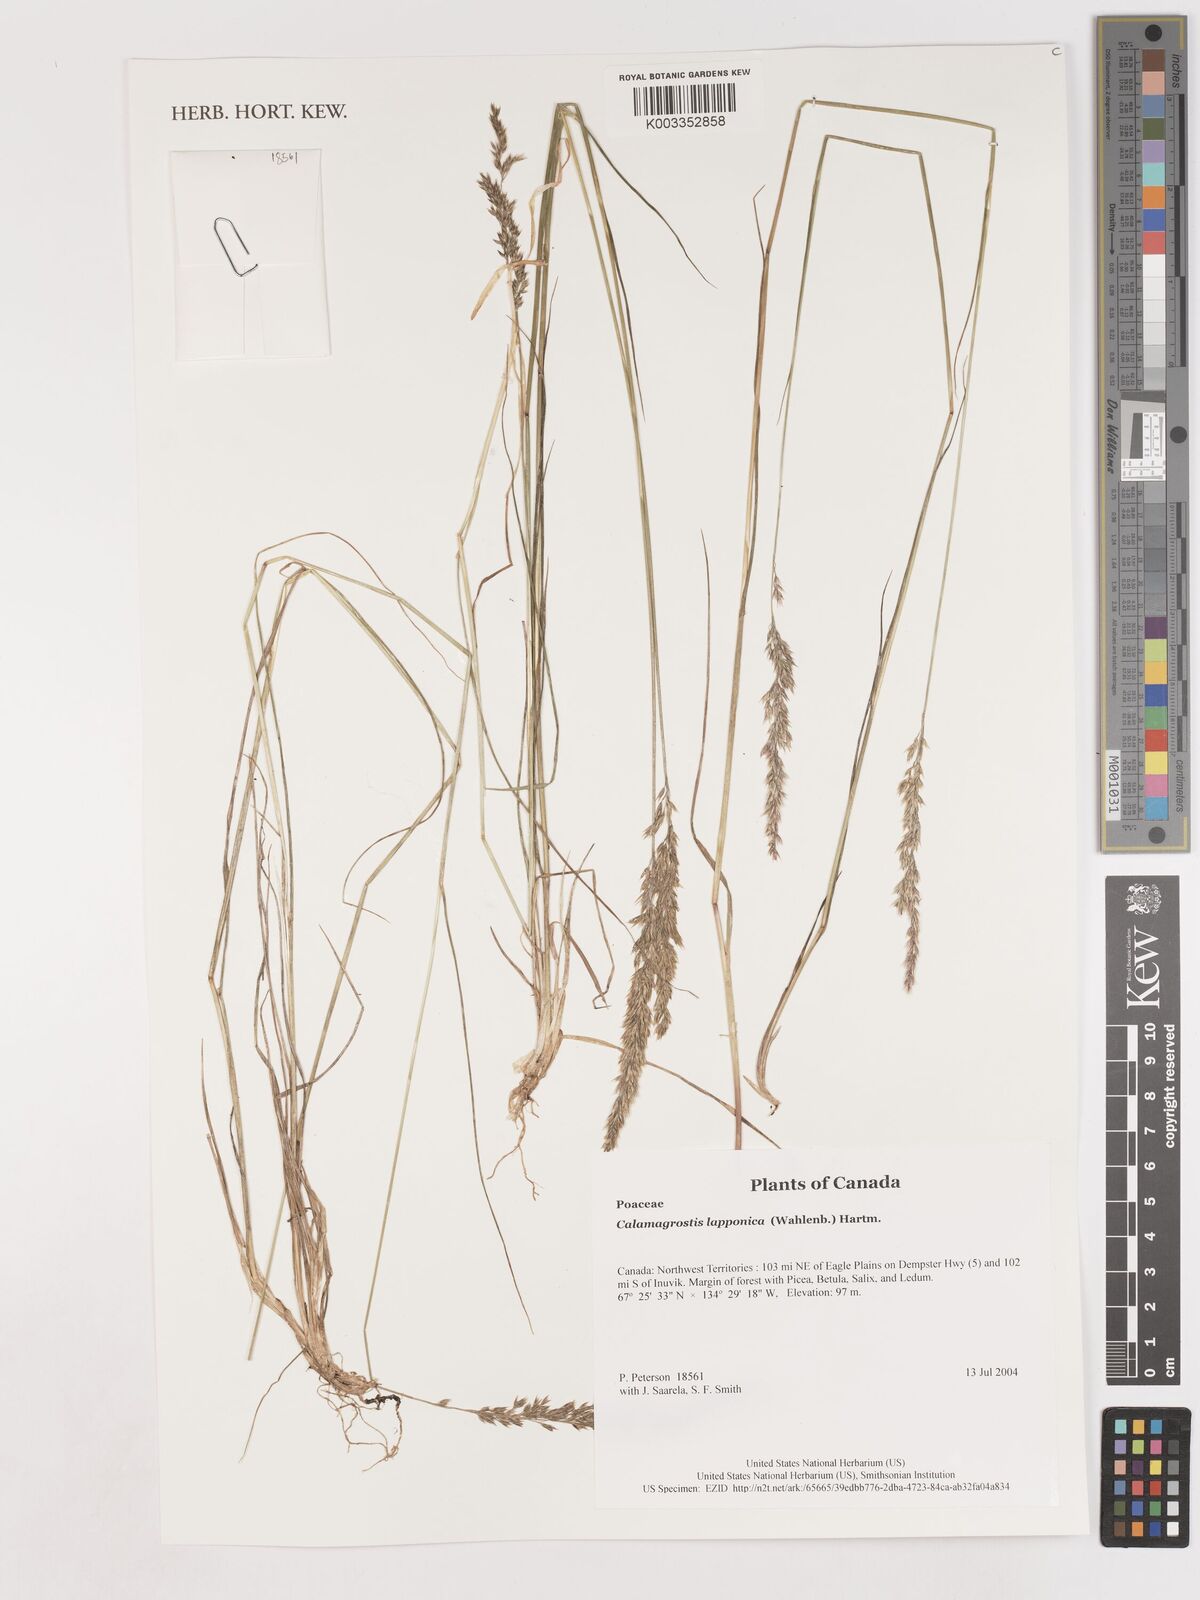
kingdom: Plantae
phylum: Tracheophyta
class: Liliopsida
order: Poales
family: Poaceae
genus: Calamagrostis
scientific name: Calamagrostis lapponica
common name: Lapland reedgrass
